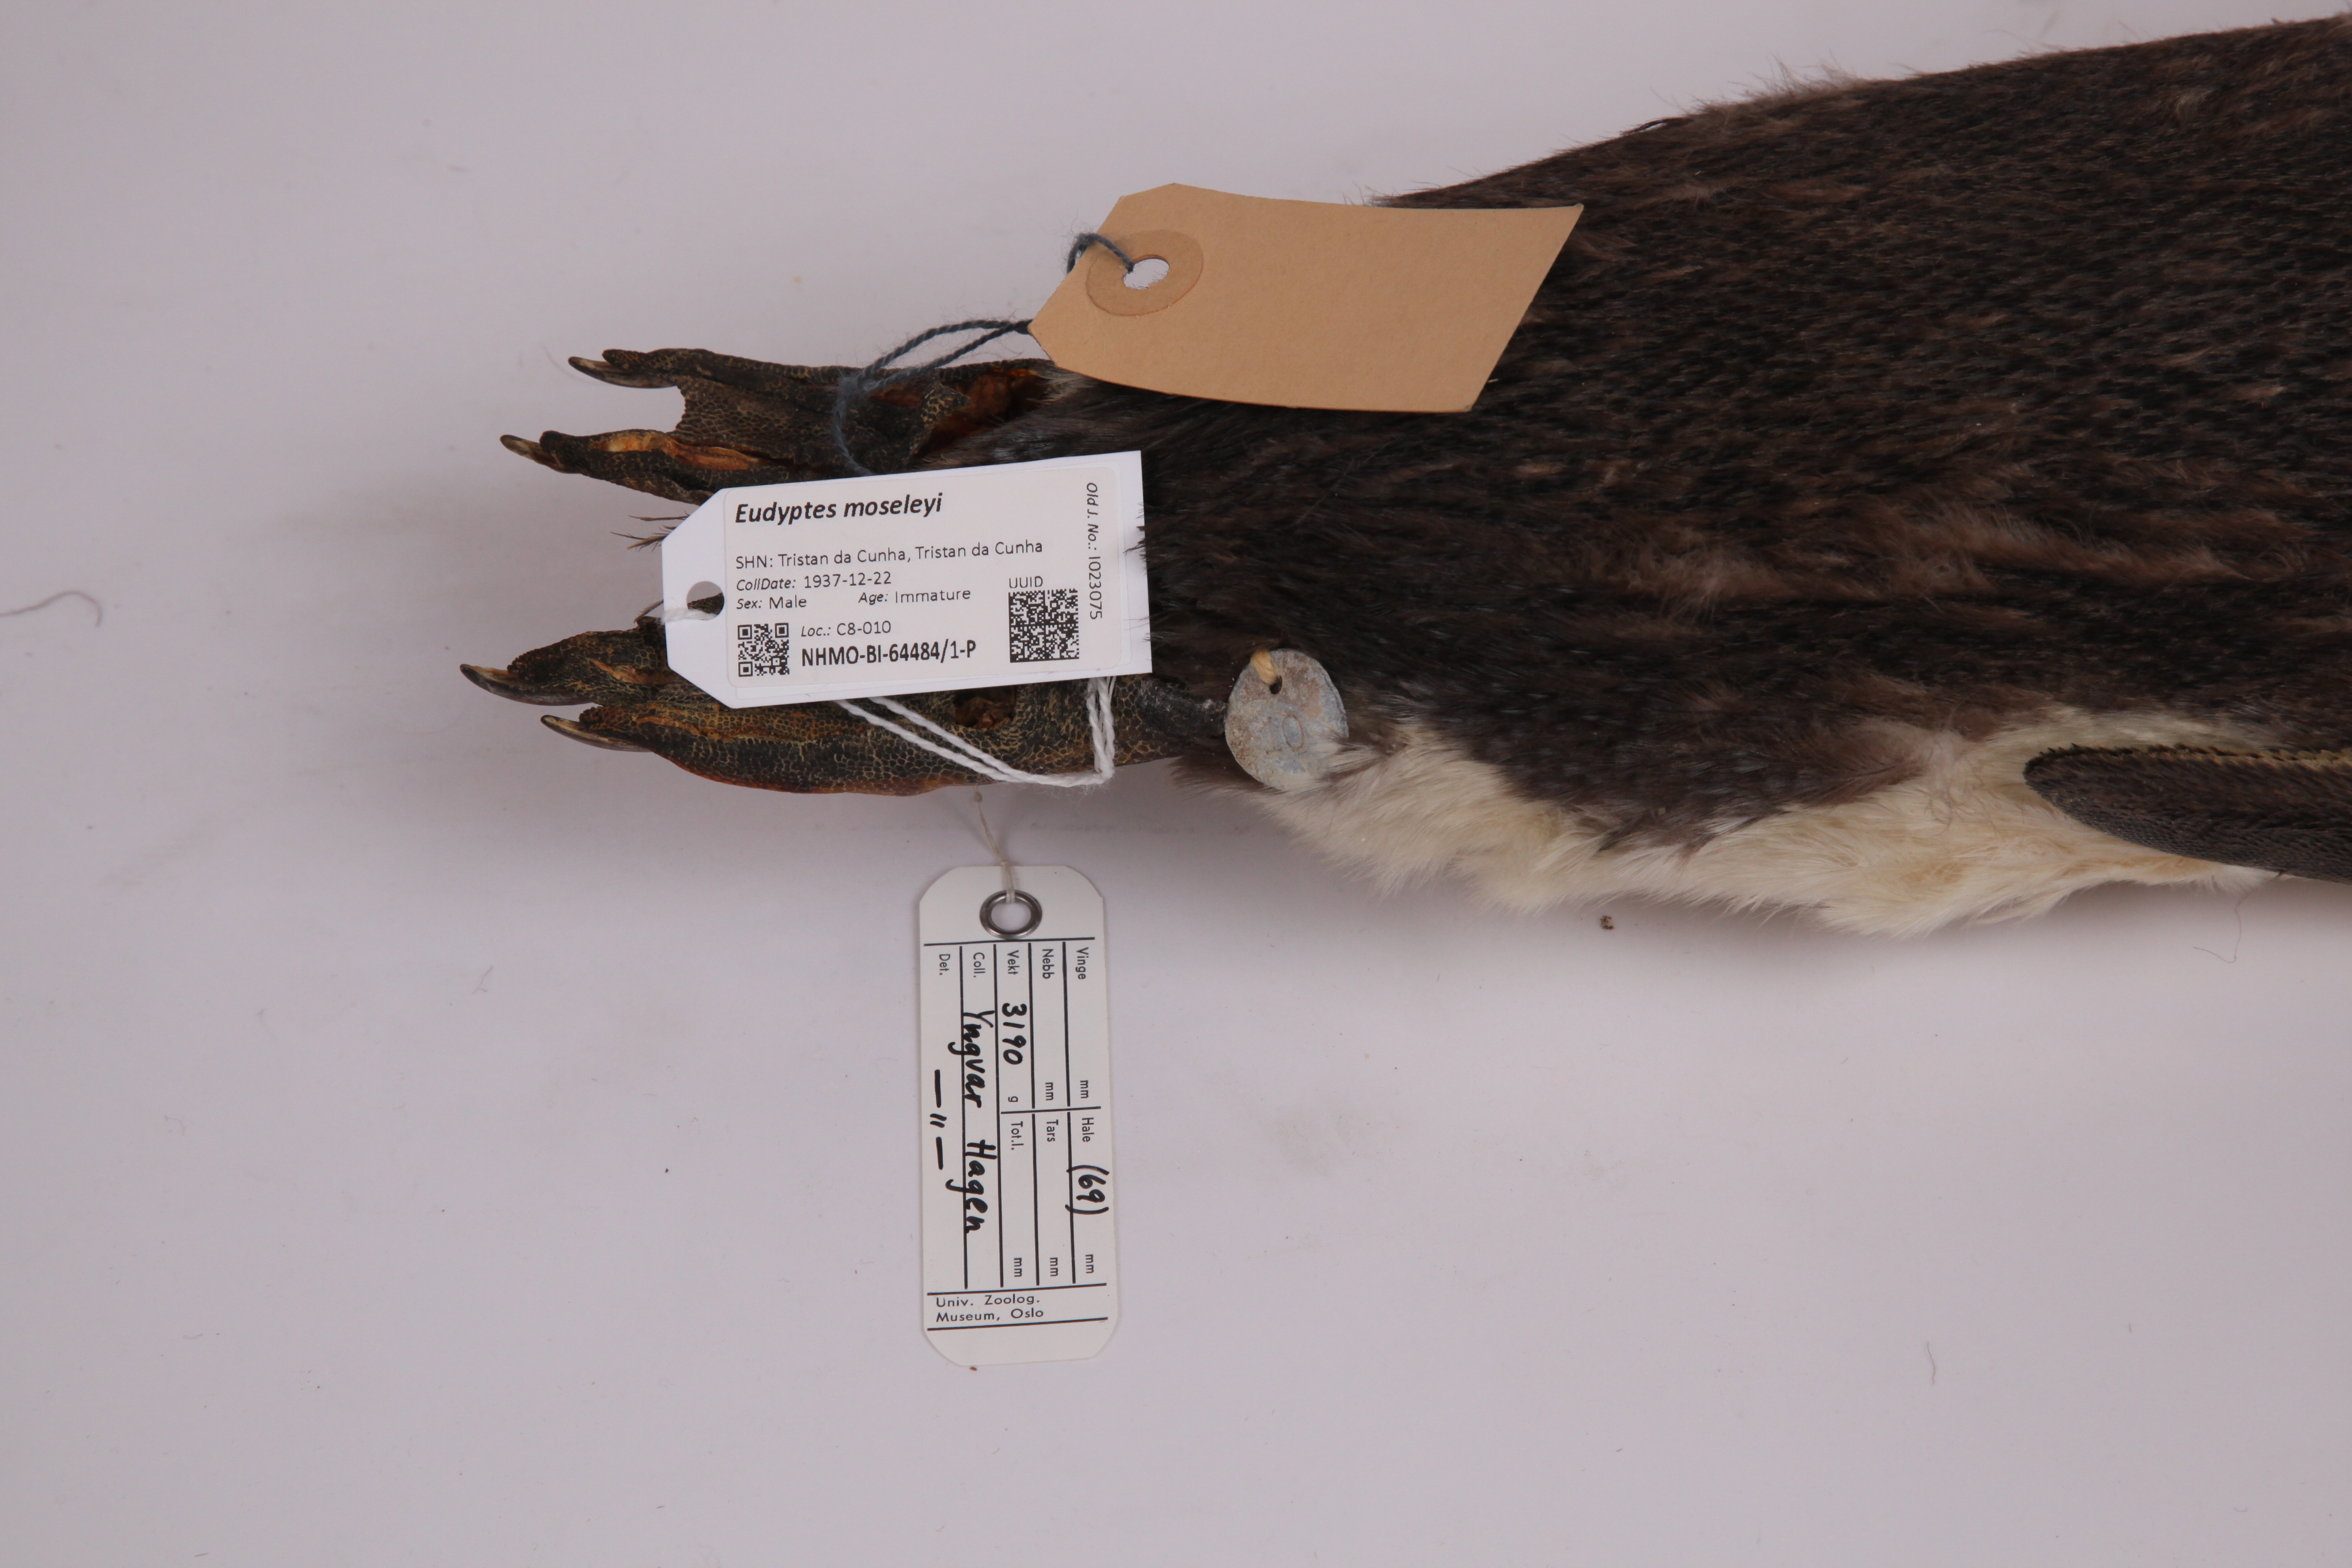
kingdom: Animalia
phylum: Chordata
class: Aves
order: Sphenisciformes
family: Spheniscidae
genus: Eudyptes
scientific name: Eudyptes moseleyi
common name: Northern rockhopper penguin
